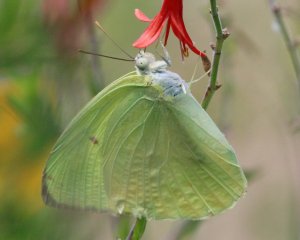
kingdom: Animalia
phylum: Arthropoda
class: Insecta
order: Lepidoptera
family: Pieridae
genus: Aphrissa
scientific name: Aphrissa statira
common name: Statira Sulphur
